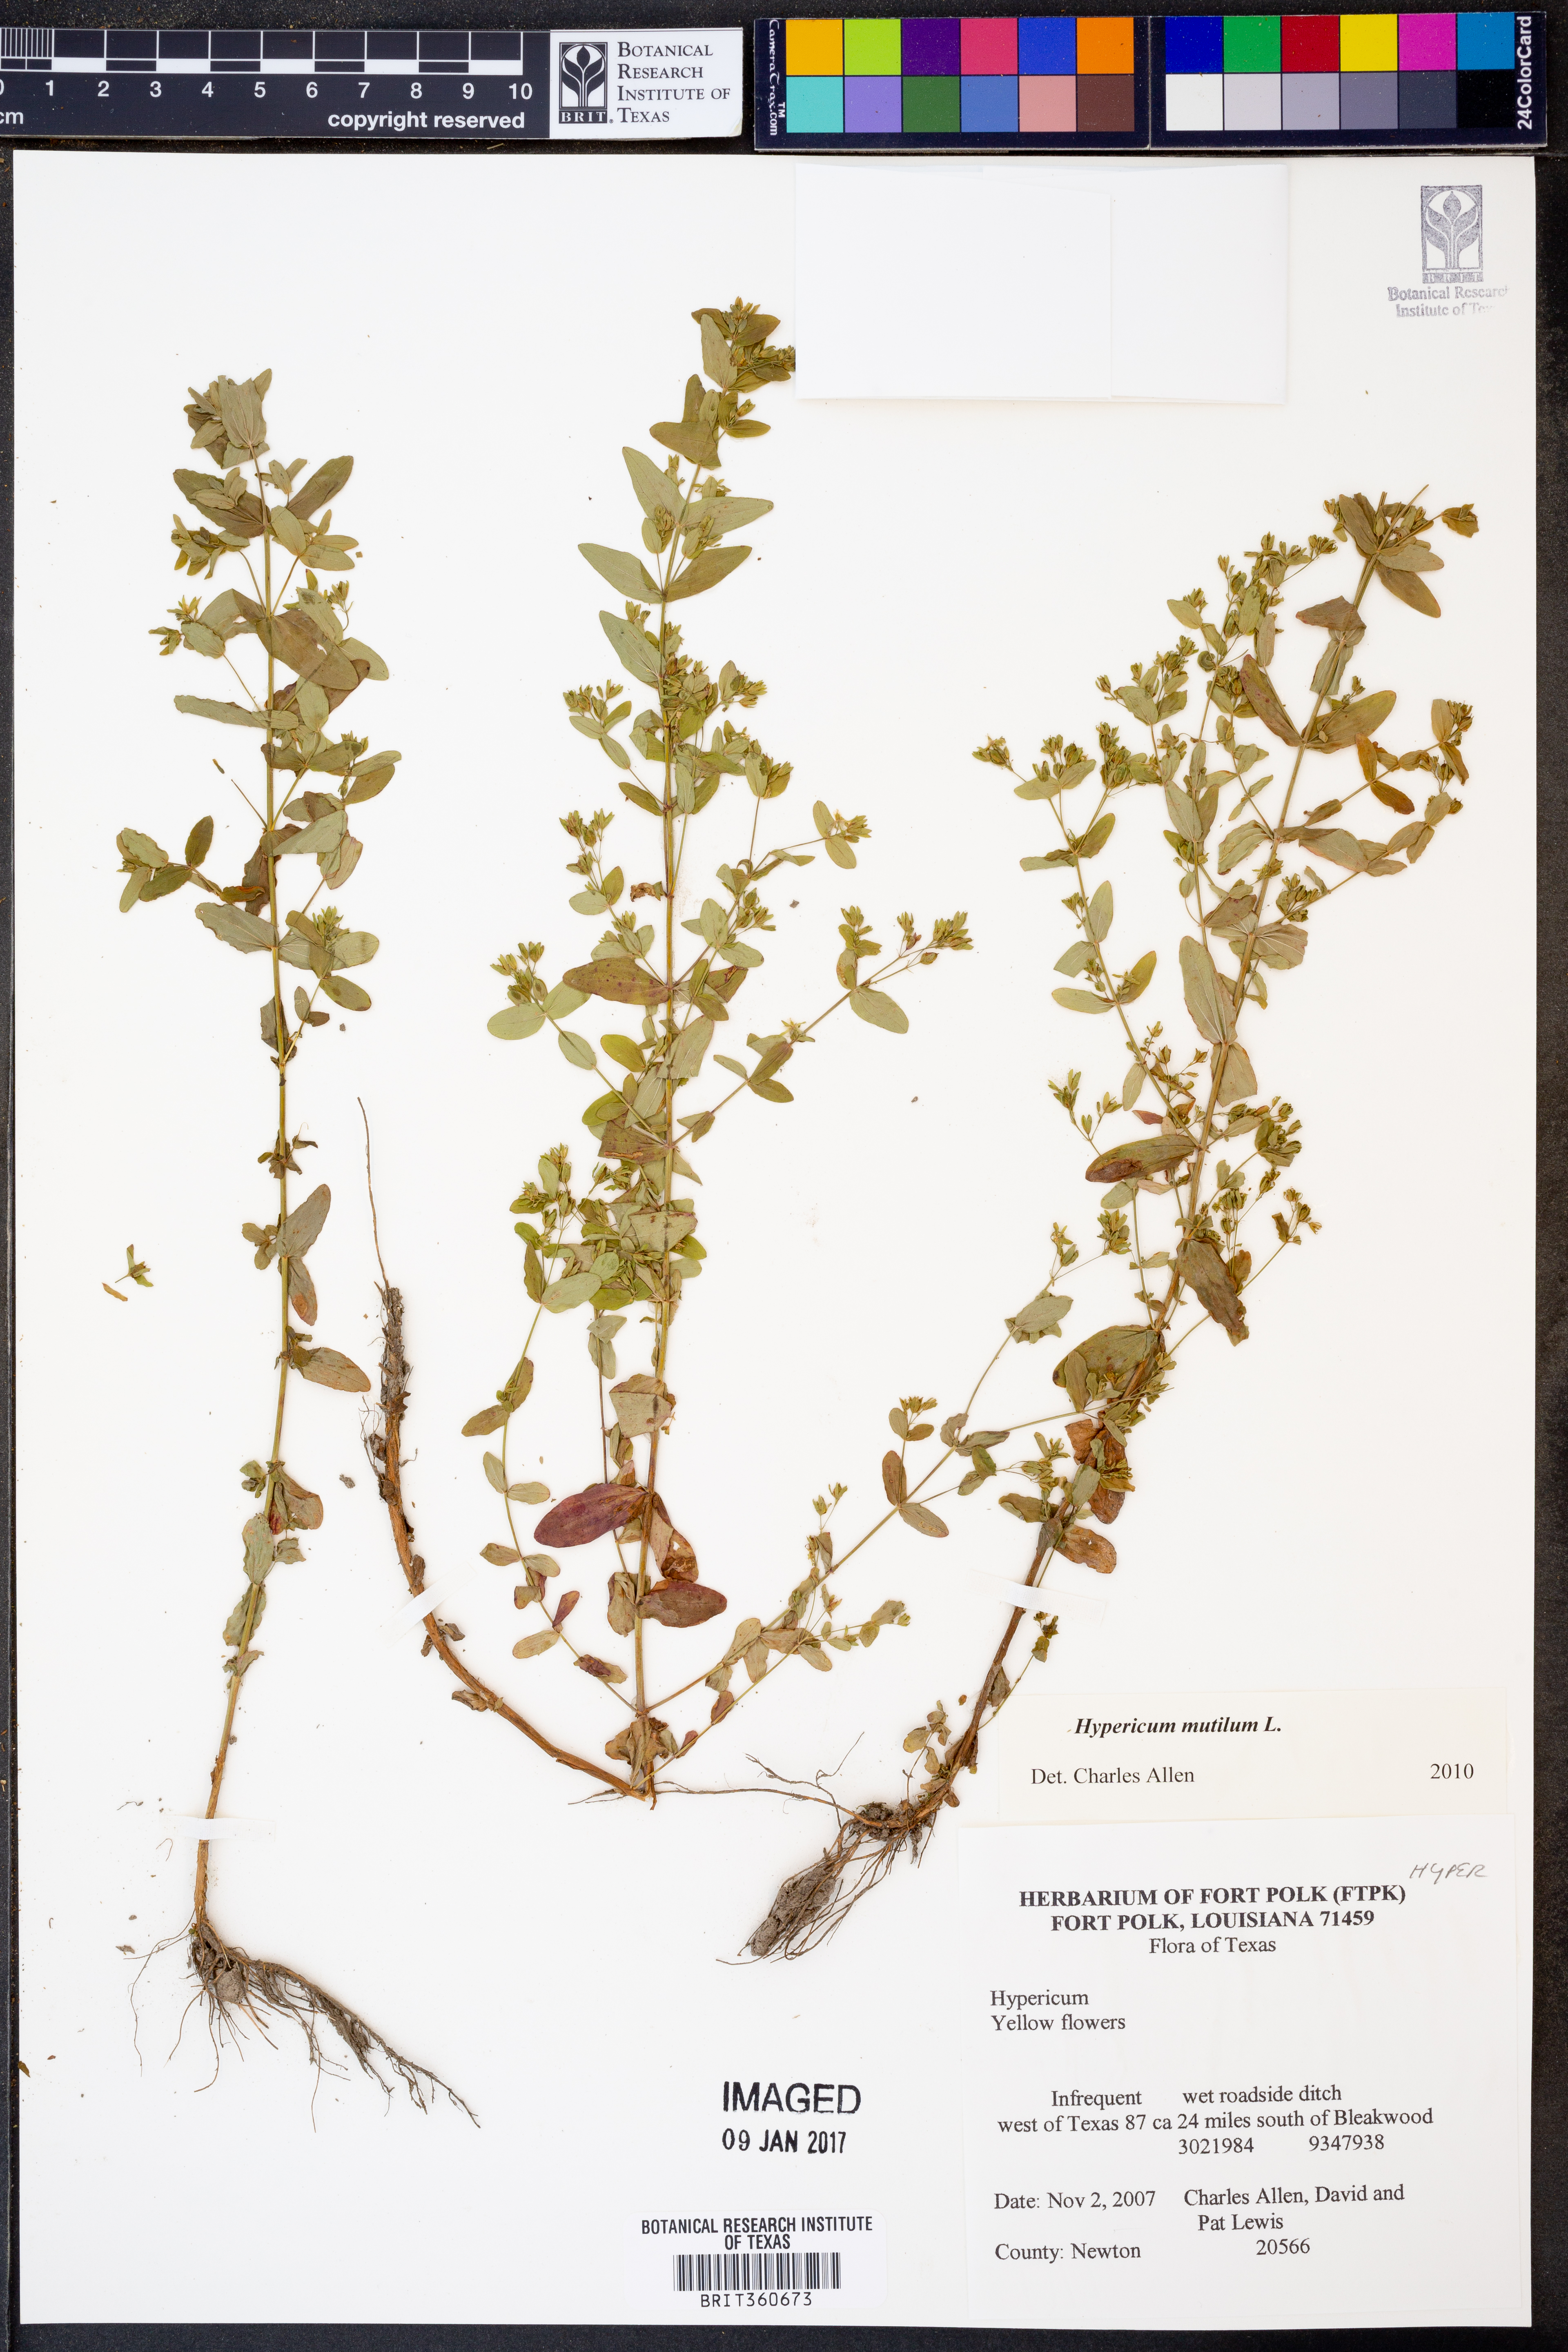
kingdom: Plantae
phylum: Tracheophyta
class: Magnoliopsida
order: Malpighiales
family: Hypericaceae
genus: Hypericum
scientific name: Hypericum mutilum
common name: Dwarf st. john's-wort
